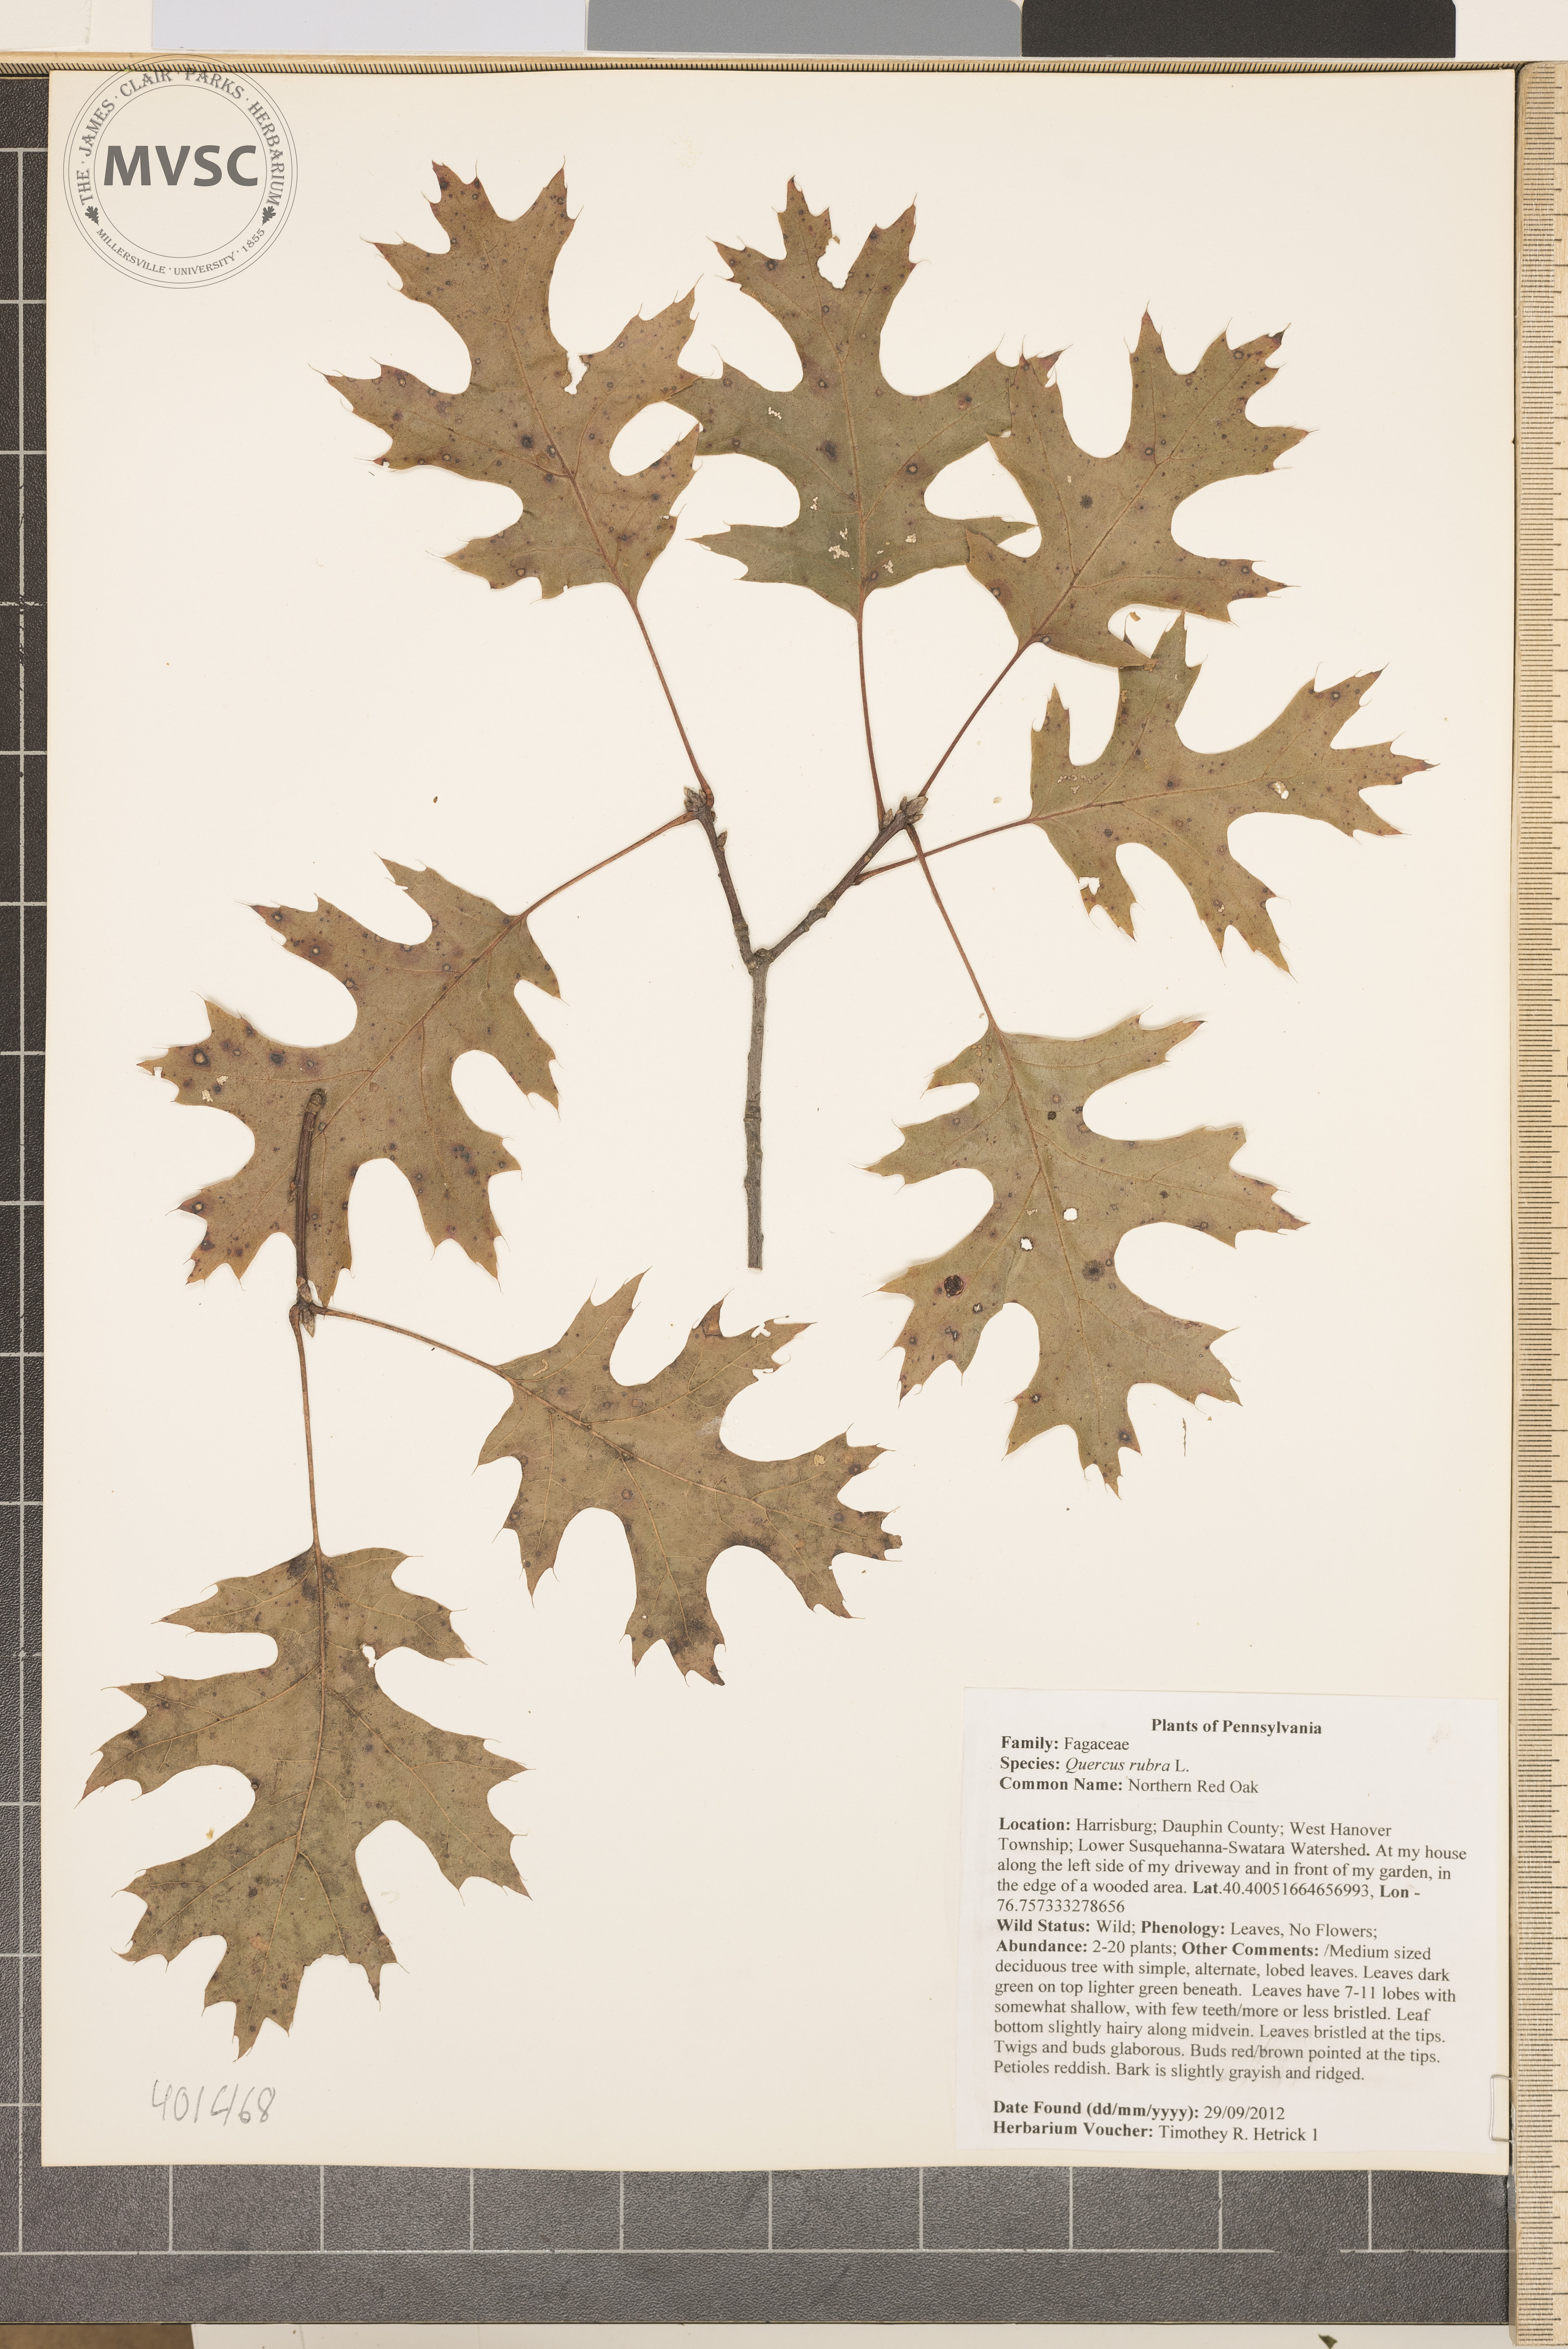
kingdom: Plantae
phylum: Tracheophyta
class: Magnoliopsida
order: Fagales
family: Fagaceae
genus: Quercus
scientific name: Quercus rubra
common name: Northern Red Oak
